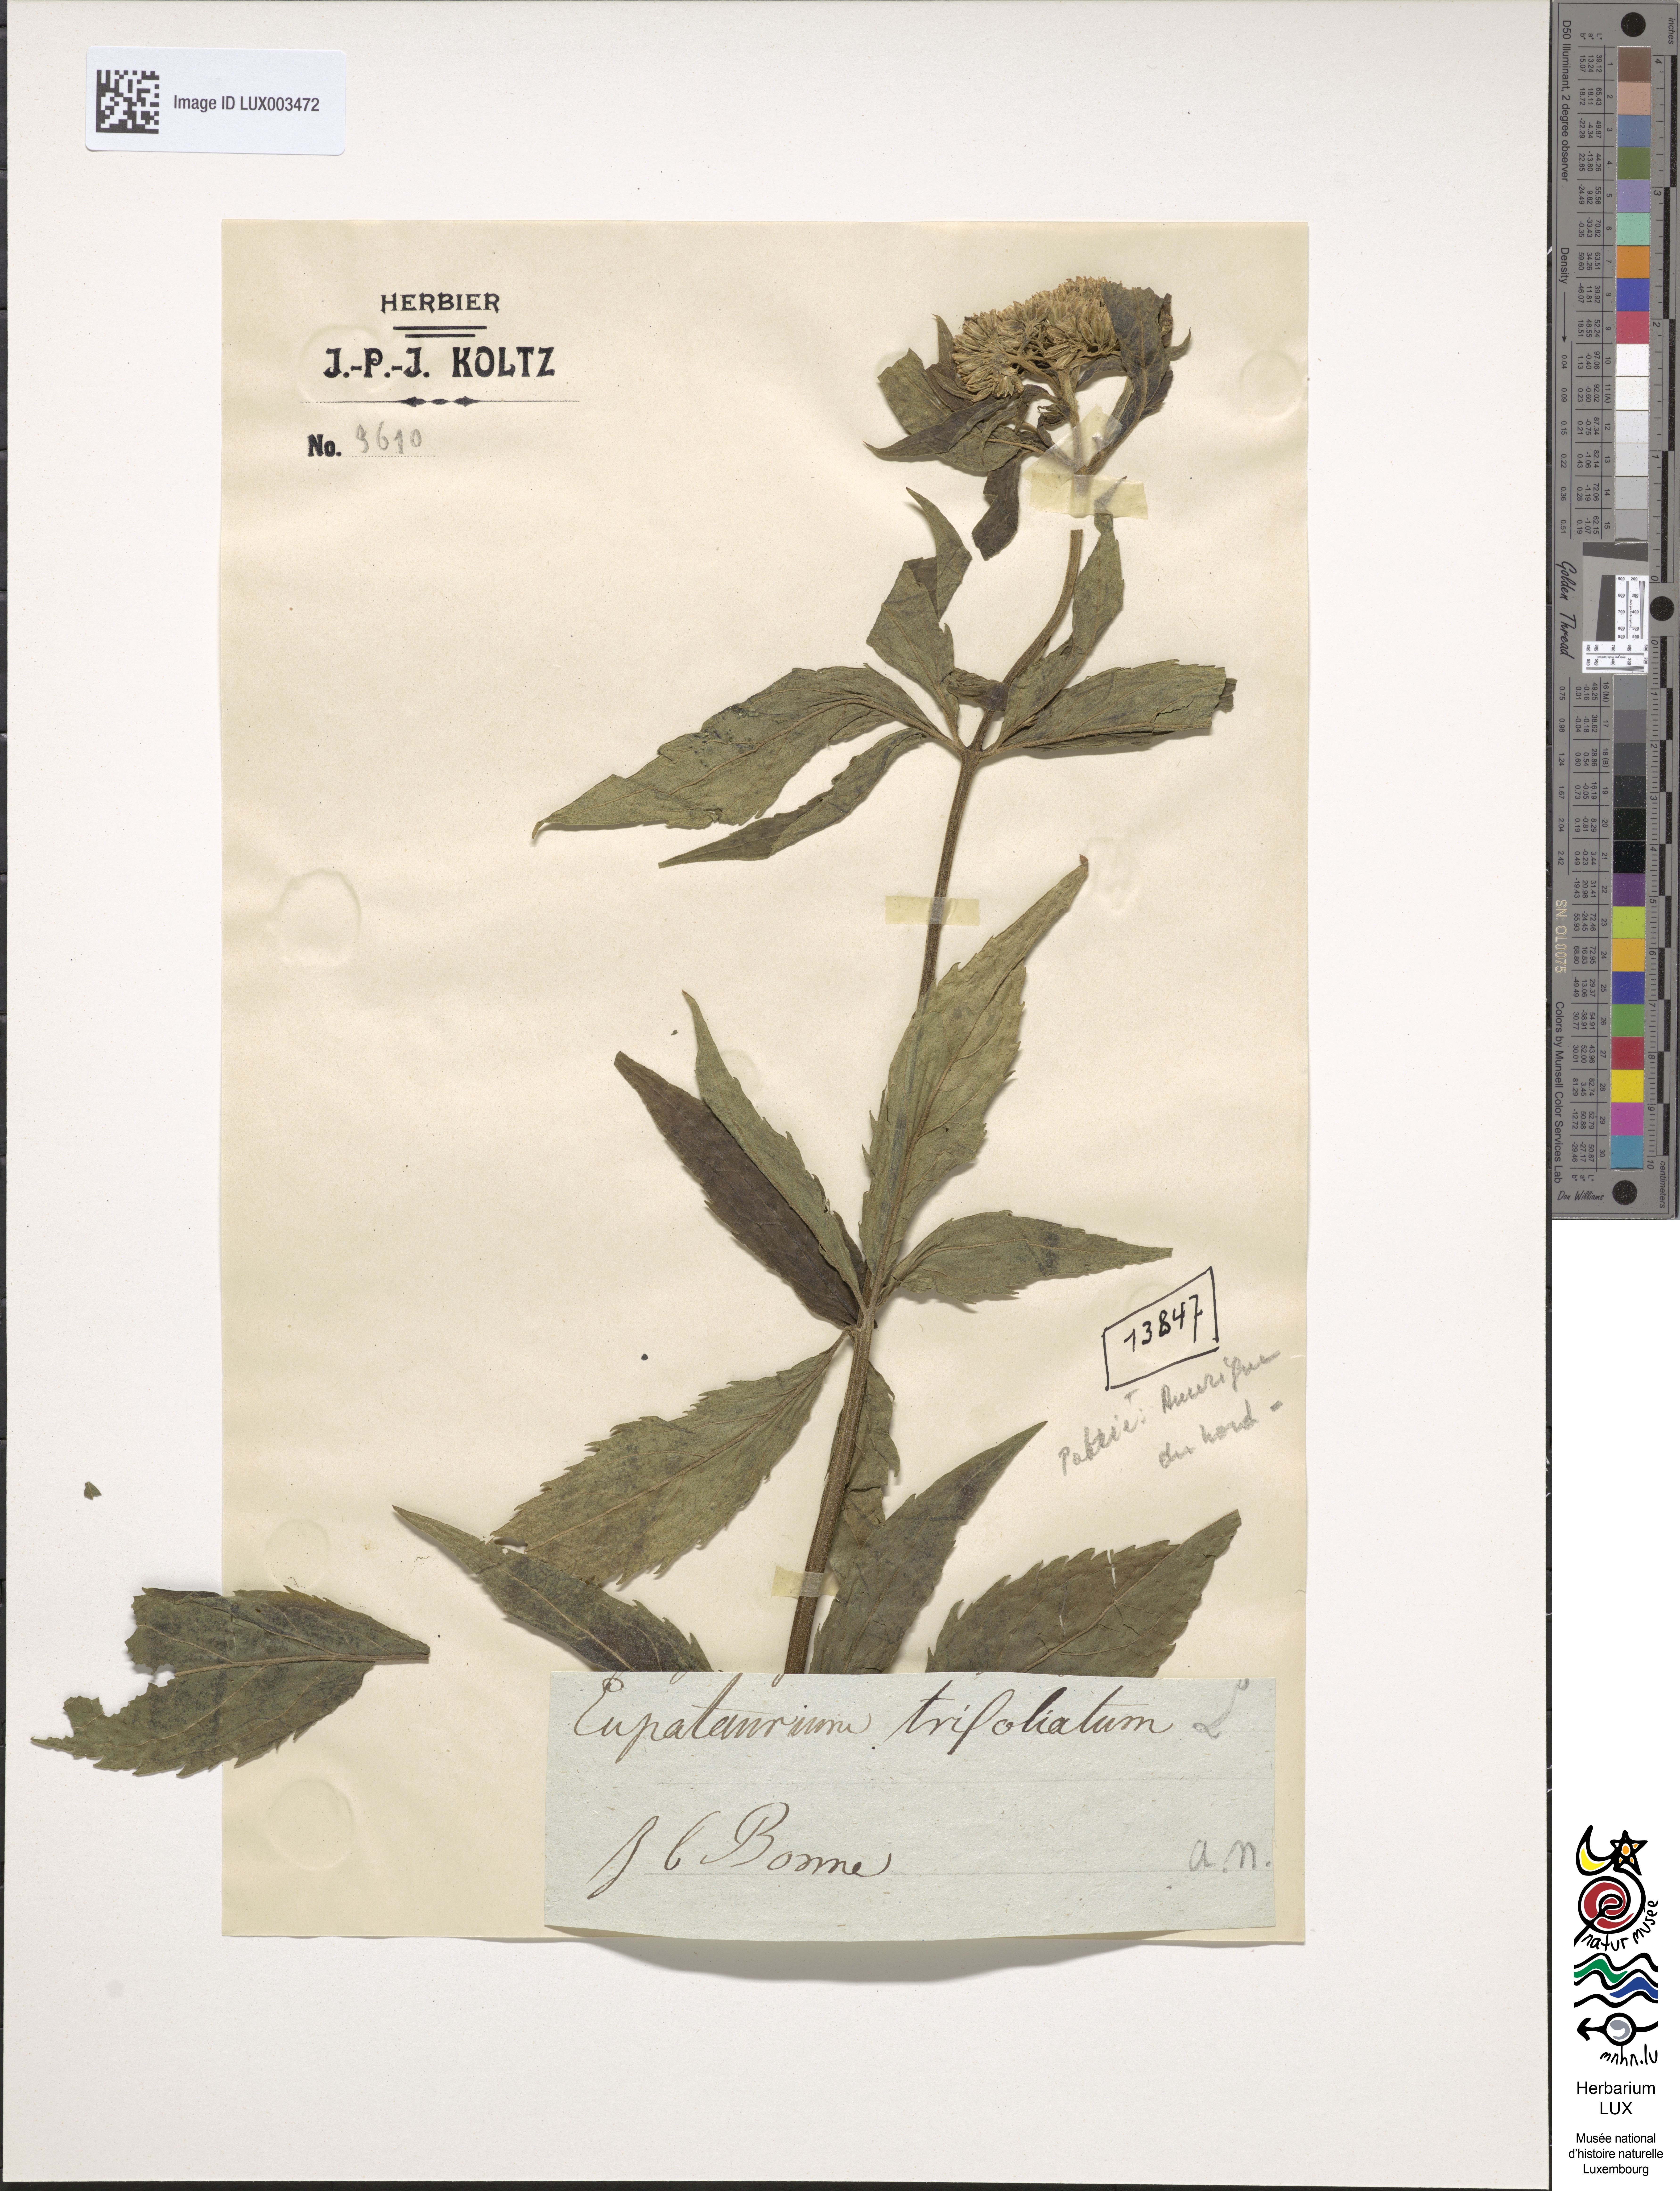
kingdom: Plantae
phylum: Tracheophyta
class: Magnoliopsida
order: Asterales
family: Asteraceae
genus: Eutrochium
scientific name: Eutrochium purpureum
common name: Gravelroot
